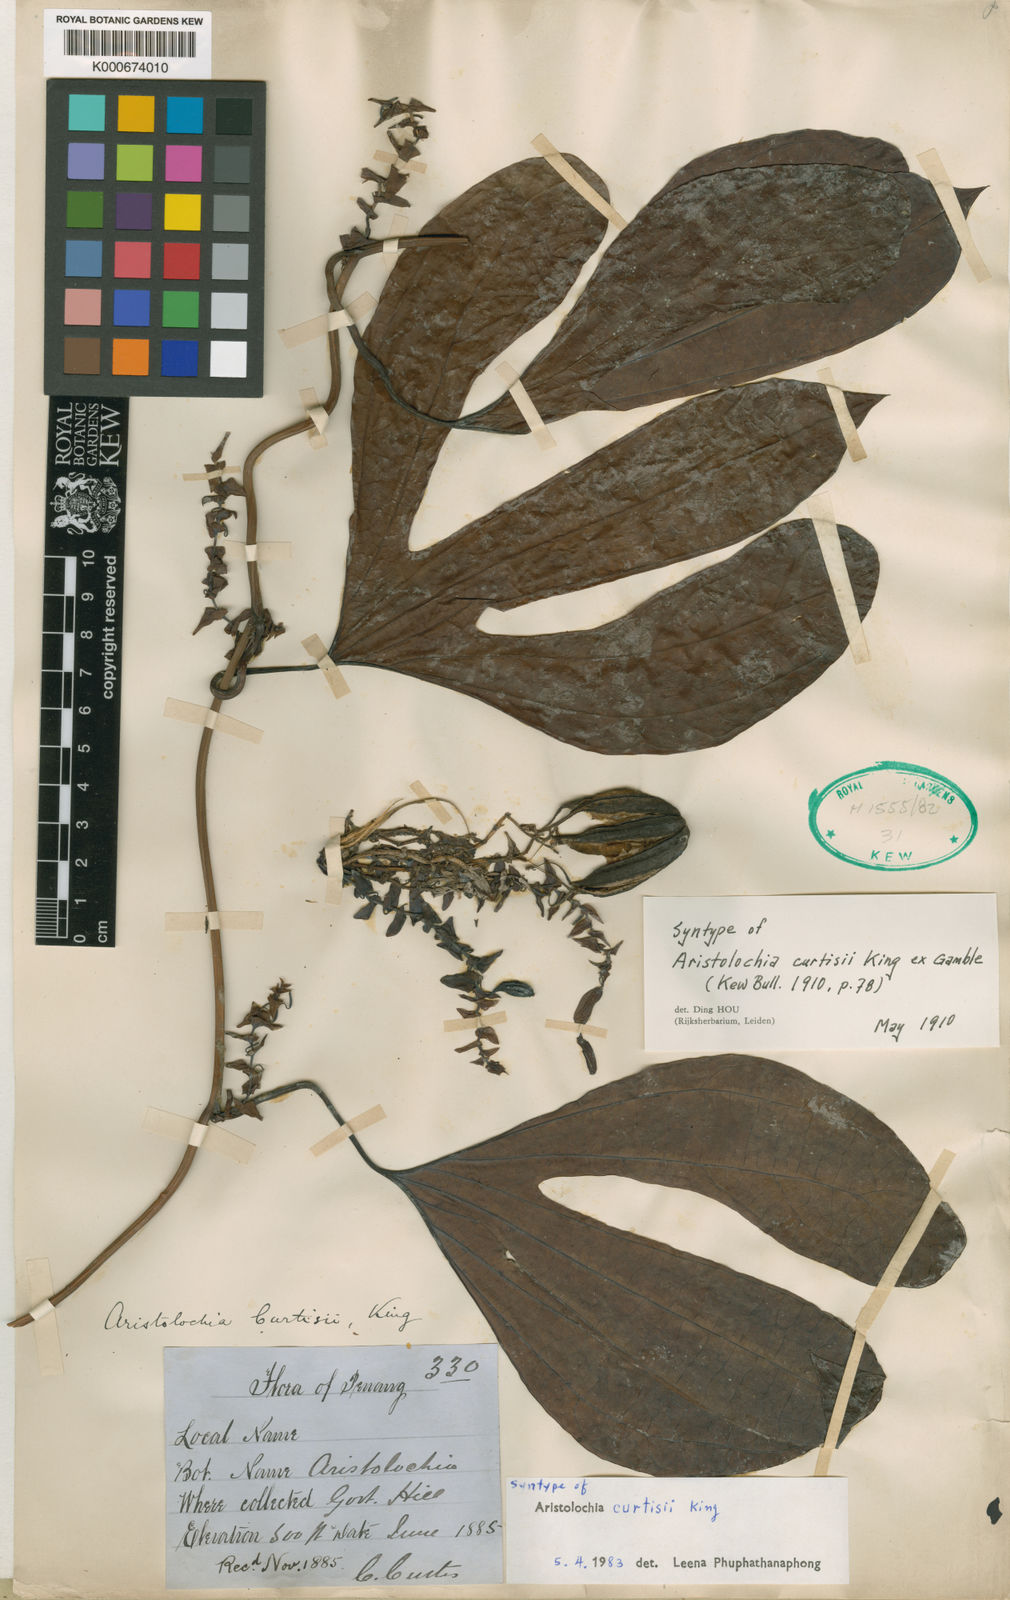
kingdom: Plantae
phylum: Tracheophyta
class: Magnoliopsida
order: Piperales
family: Aristolochiaceae
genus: Aristolochia
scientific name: Aristolochia
